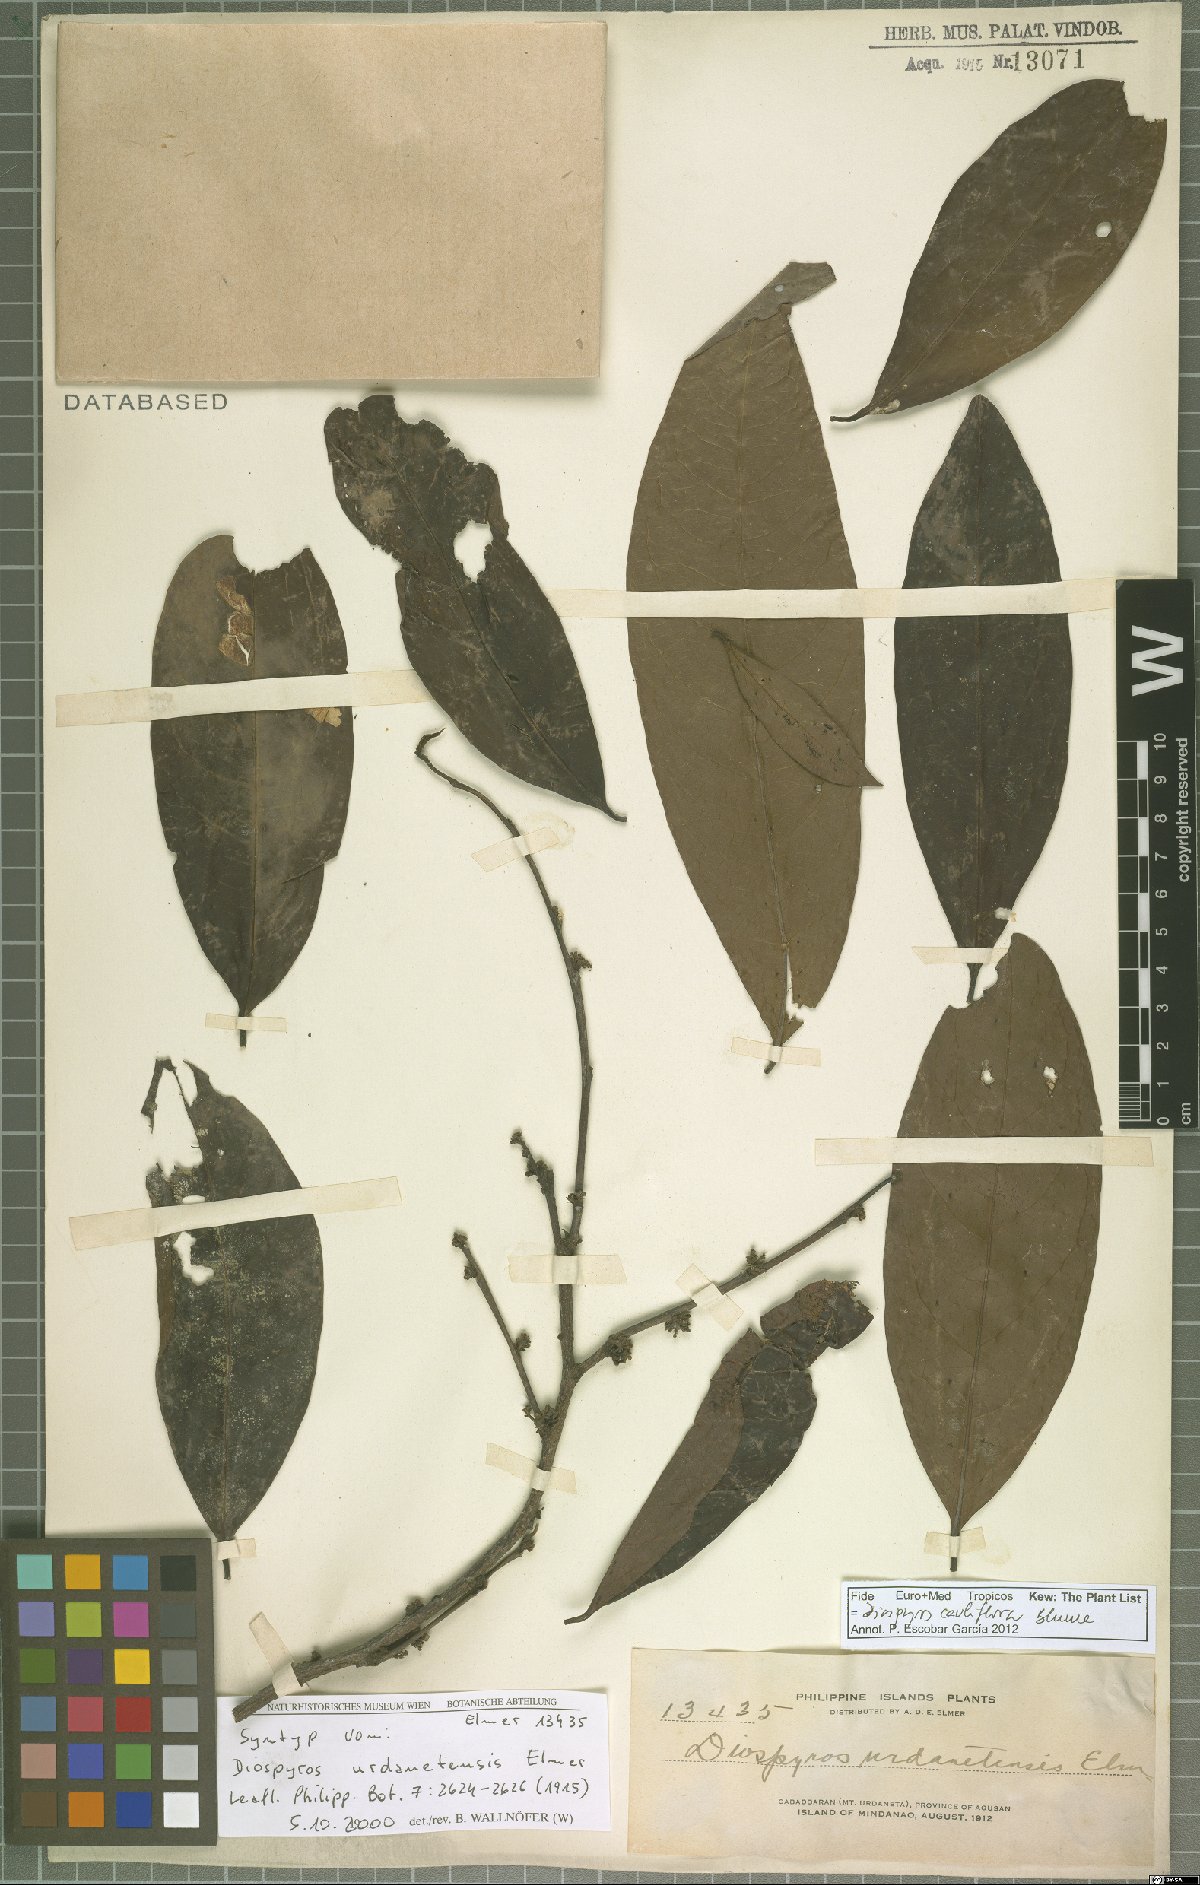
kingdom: Plantae
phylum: Tracheophyta
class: Magnoliopsida
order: Ericales
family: Ebenaceae
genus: Diospyros
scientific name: Diospyros cauliflora
